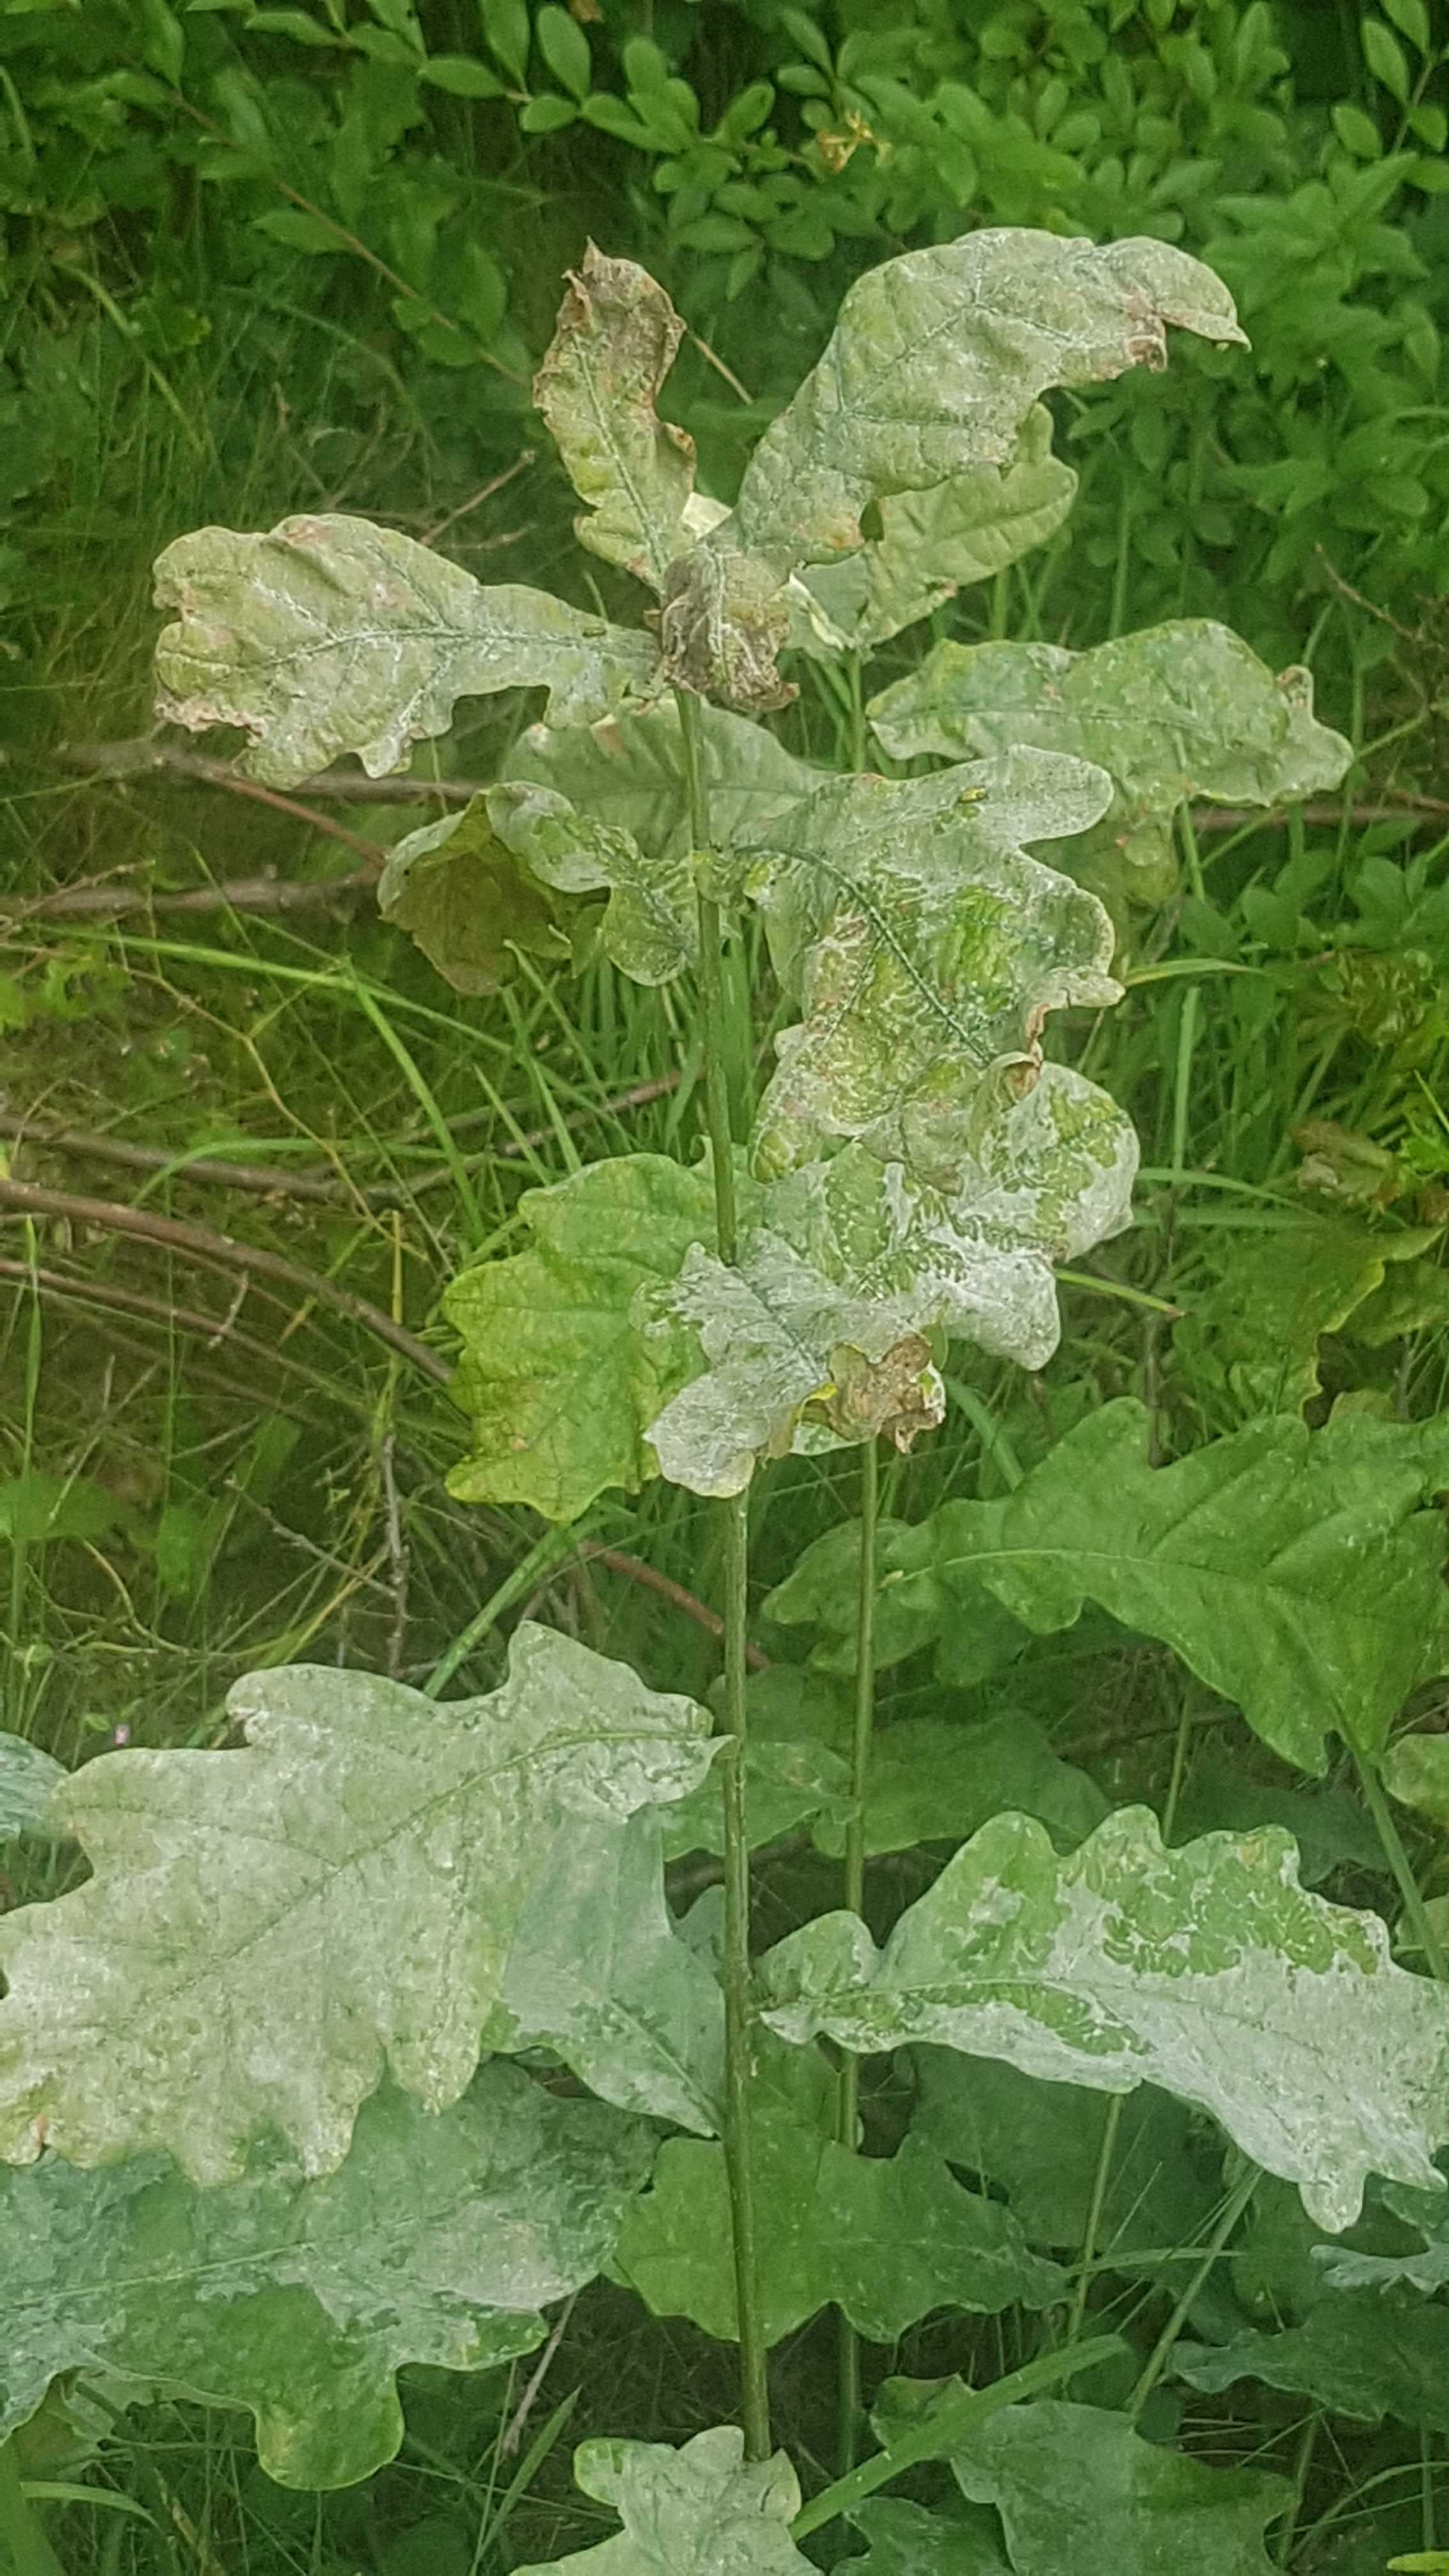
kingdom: Fungi
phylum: Ascomycota
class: Leotiomycetes
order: Helotiales
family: Erysiphaceae
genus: Erysiphe
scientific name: Erysiphe alphitoides
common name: ege-meldug
